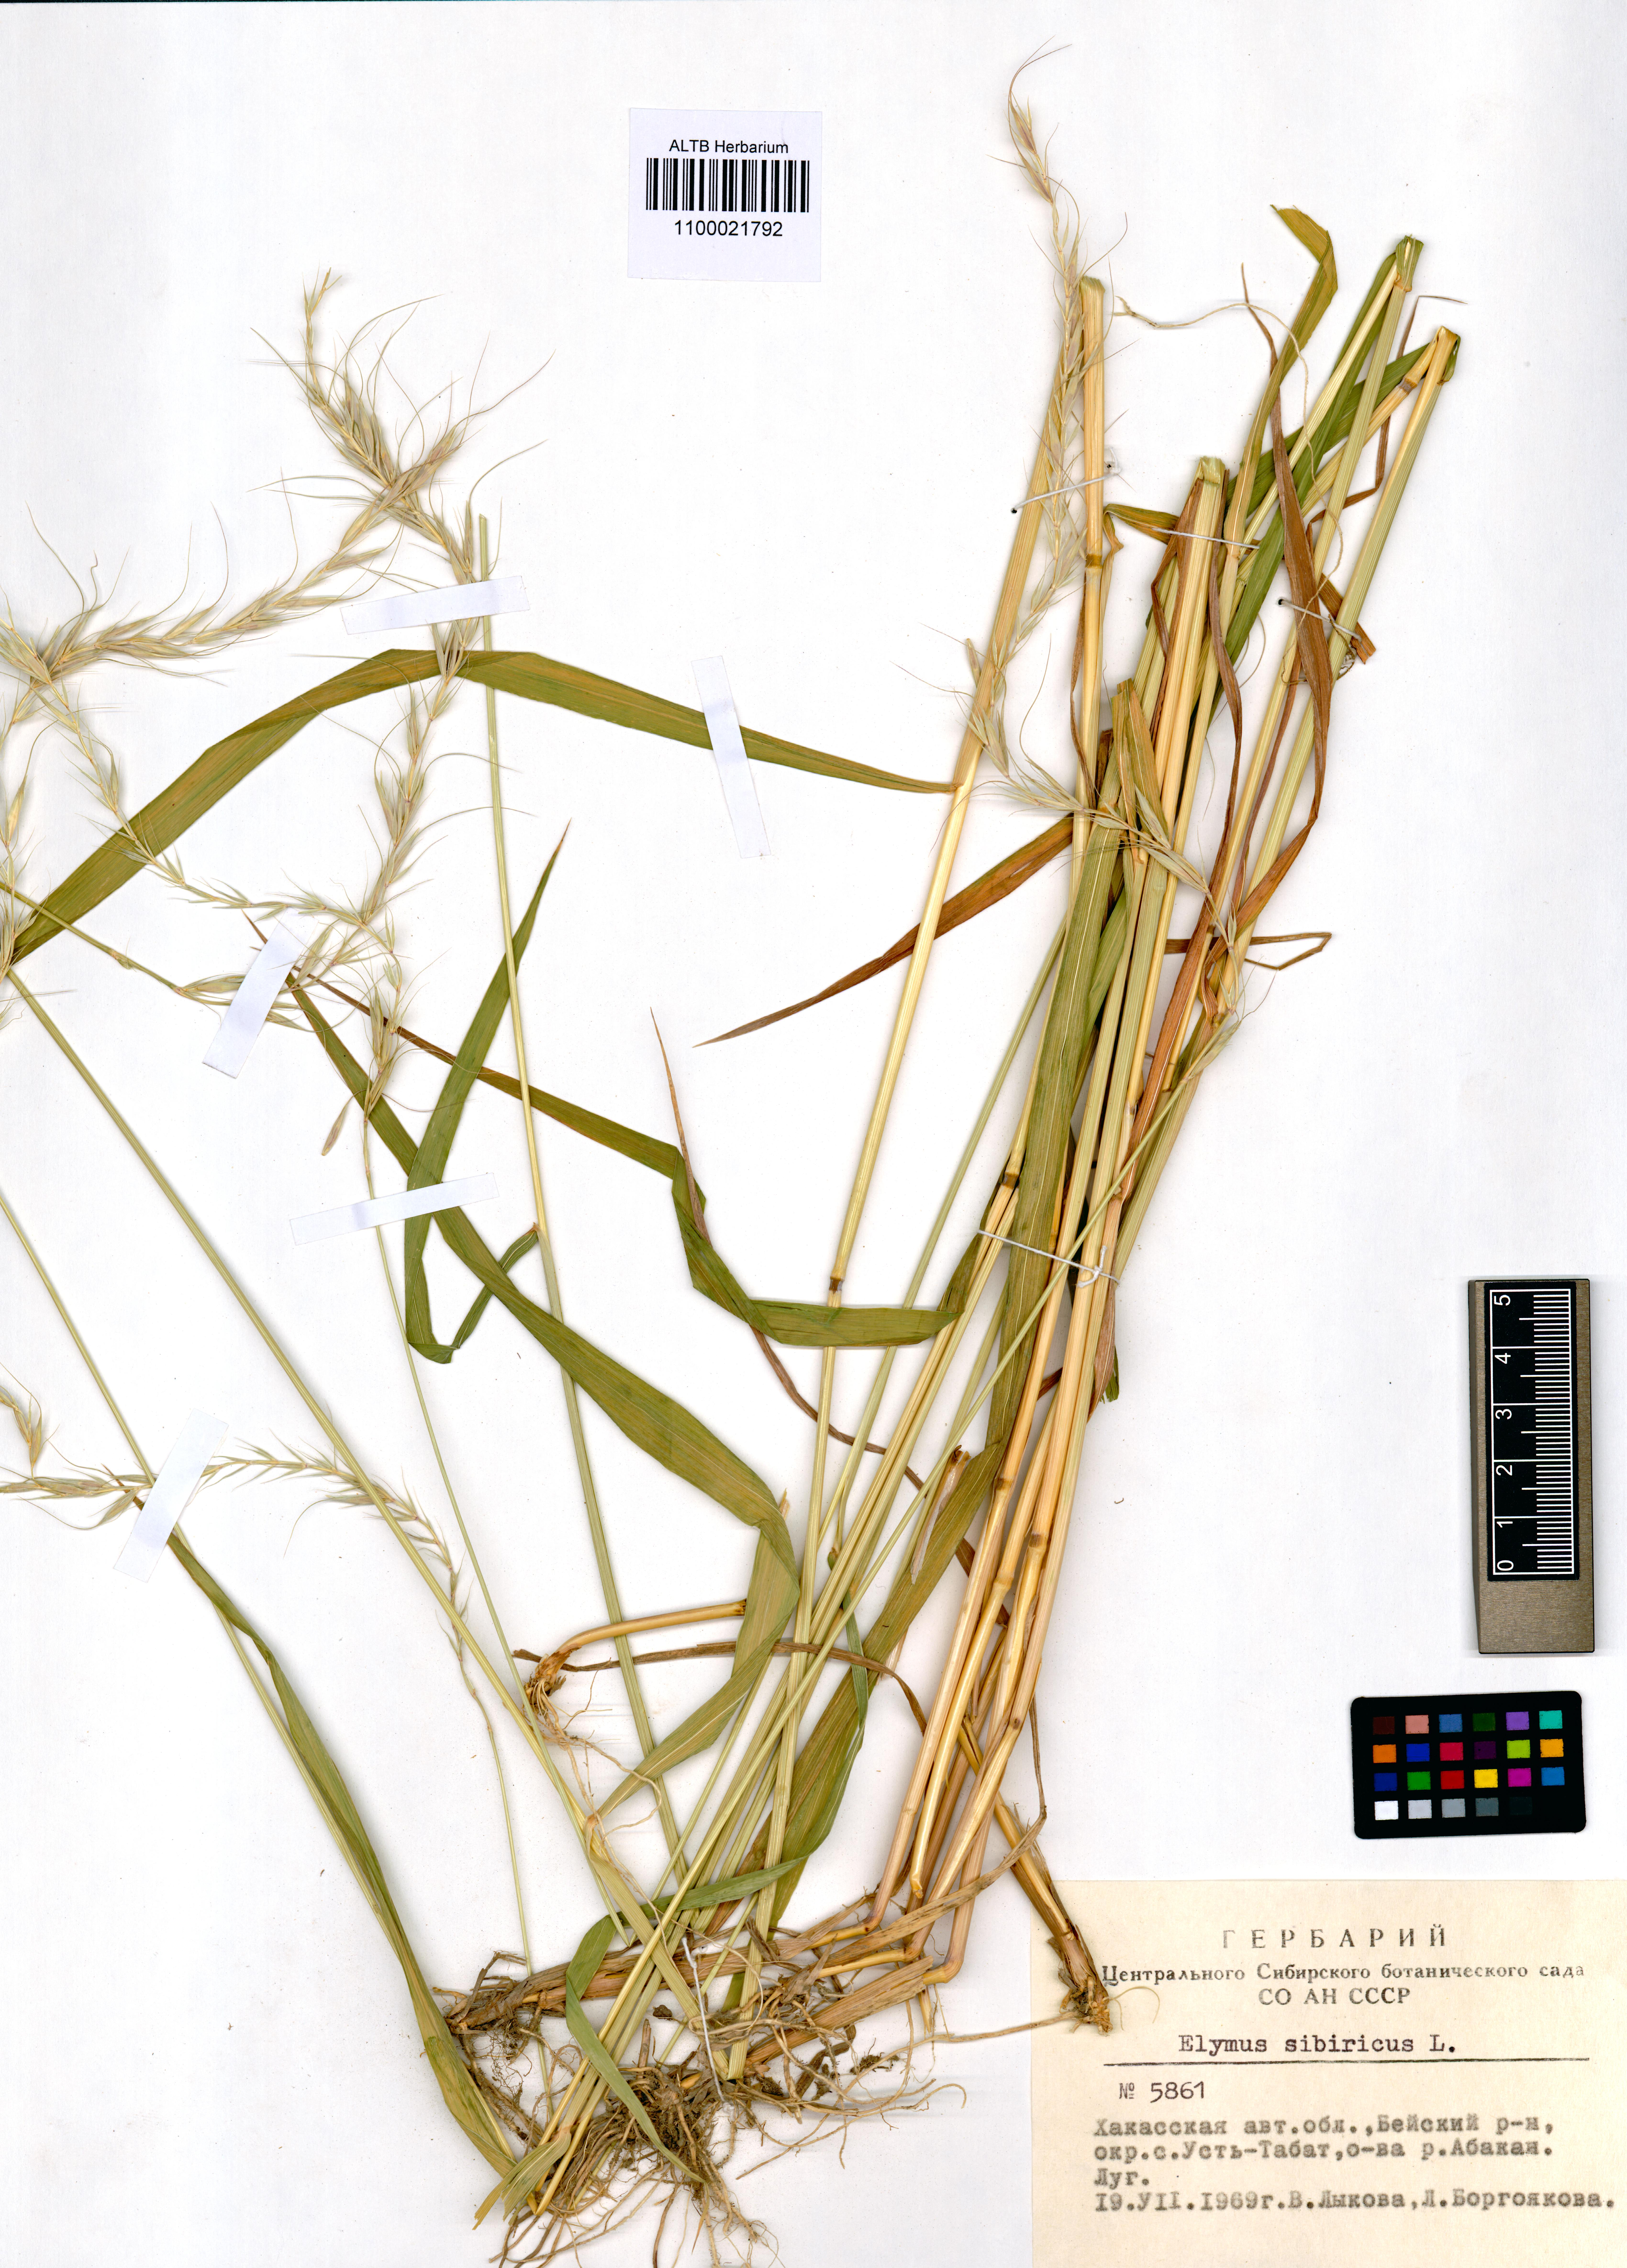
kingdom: Plantae
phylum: Tracheophyta
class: Liliopsida
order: Poales
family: Poaceae
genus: Elymus
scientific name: Elymus sibiricus
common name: Siberian wildrye
